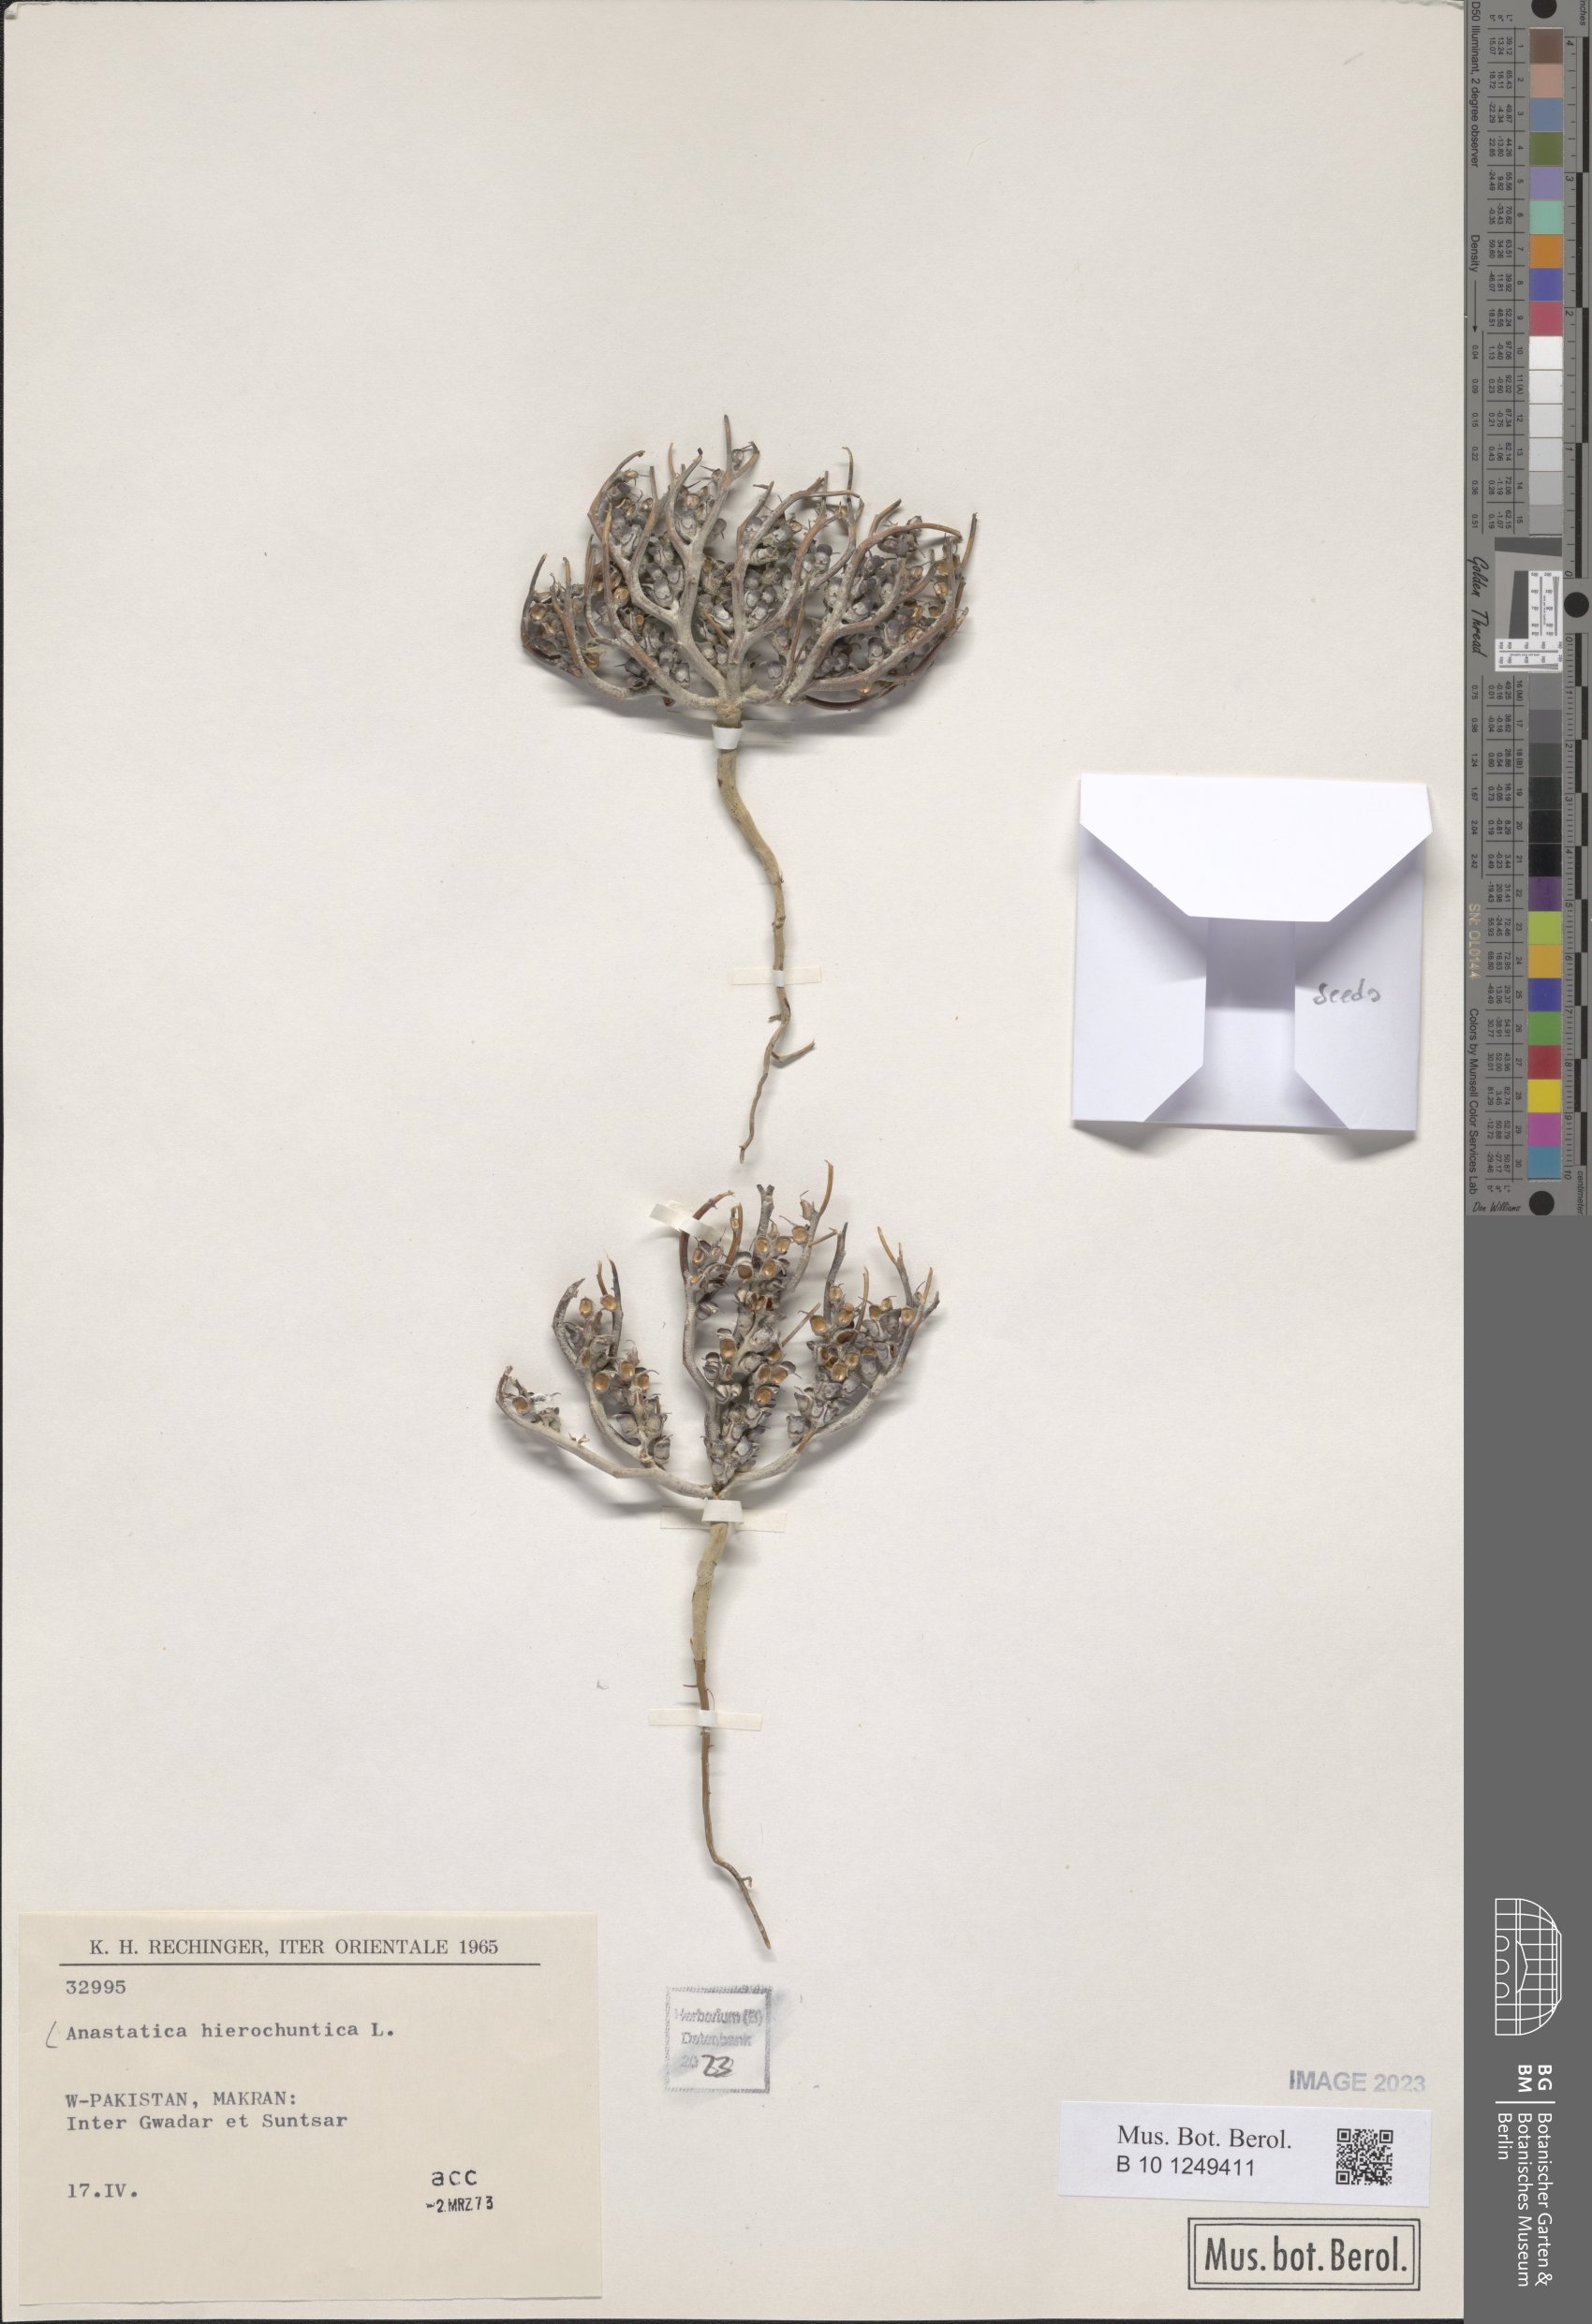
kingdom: Plantae
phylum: Tracheophyta
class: Magnoliopsida
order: Brassicales
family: Brassicaceae
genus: Anastatica
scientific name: Anastatica hierochuntica
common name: Rose-of-jericho
